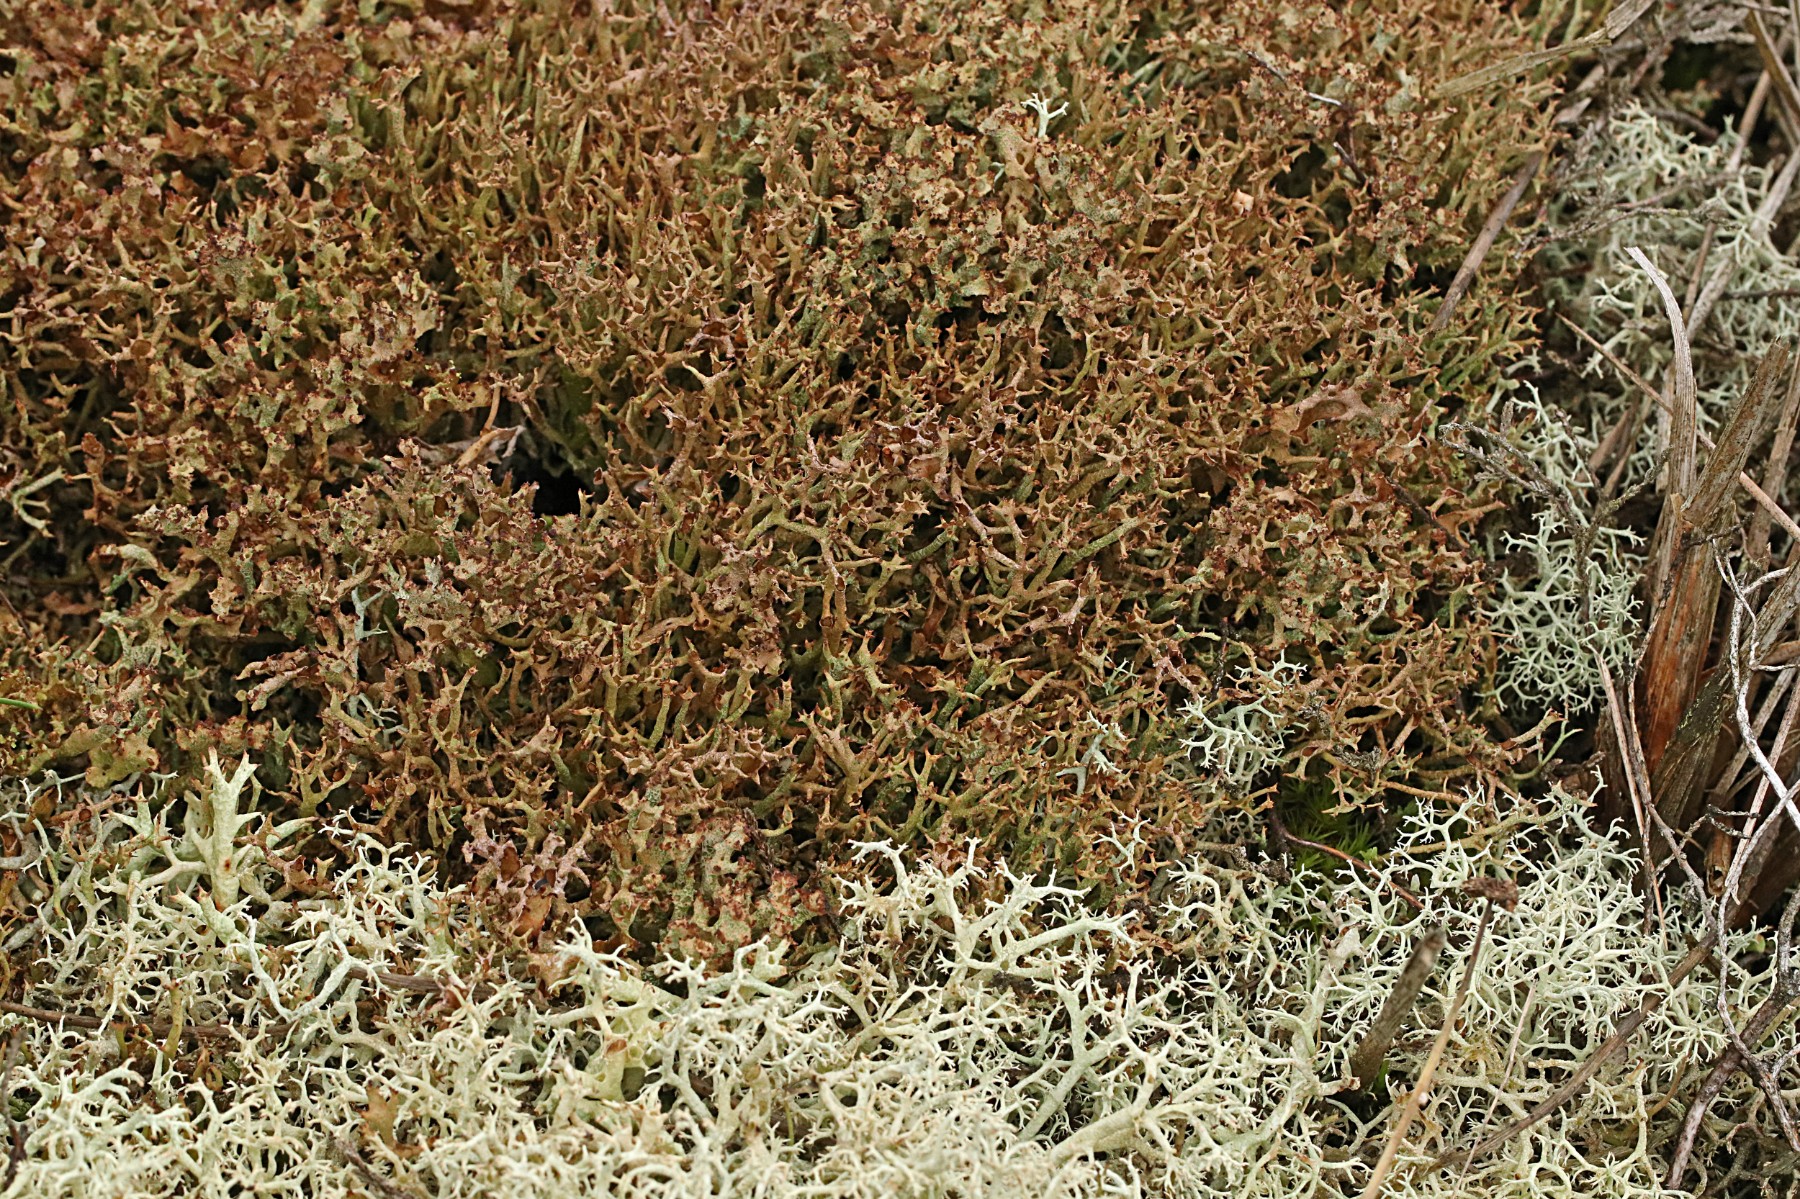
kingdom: Fungi
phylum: Ascomycota
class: Lecanoromycetes
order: Lecanorales
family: Cladoniaceae
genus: Cladonia
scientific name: Cladonia crispata
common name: takket bægerlav
